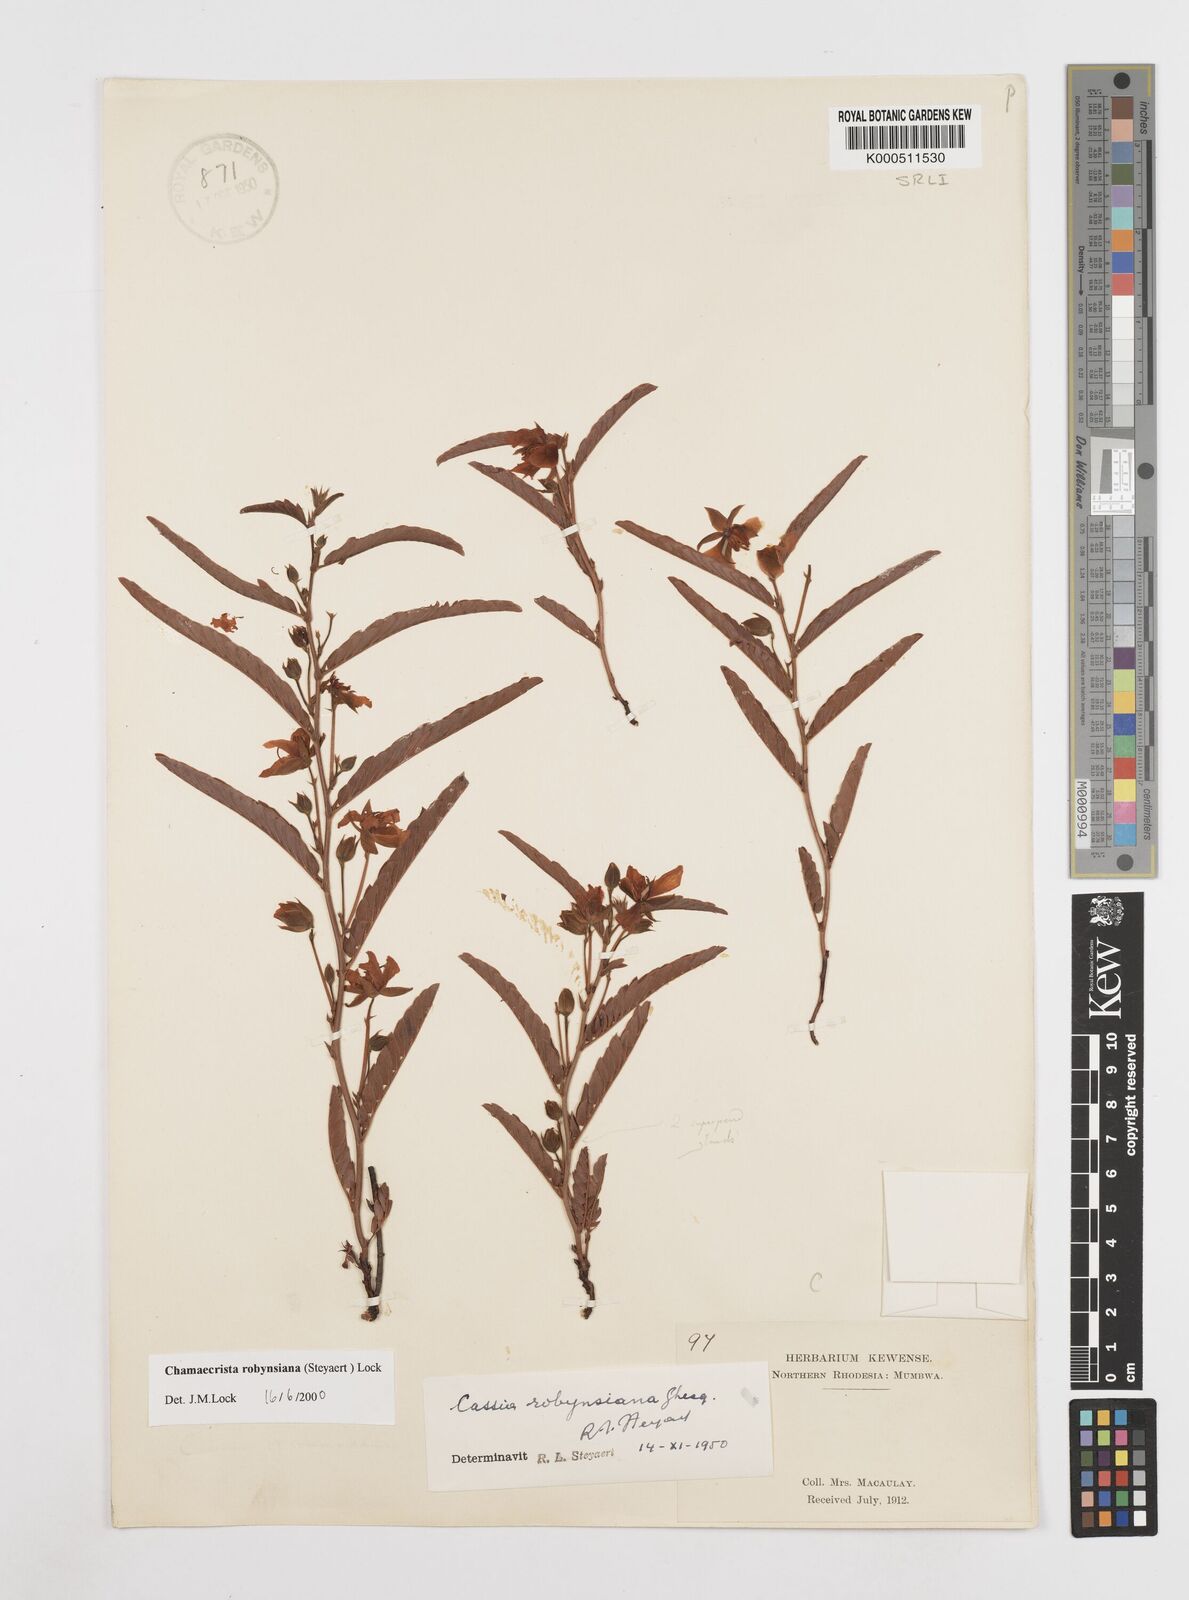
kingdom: Plantae
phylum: Tracheophyta
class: Magnoliopsida
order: Fabales
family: Fabaceae
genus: Chamaecrista
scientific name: Chamaecrista robynsiana
